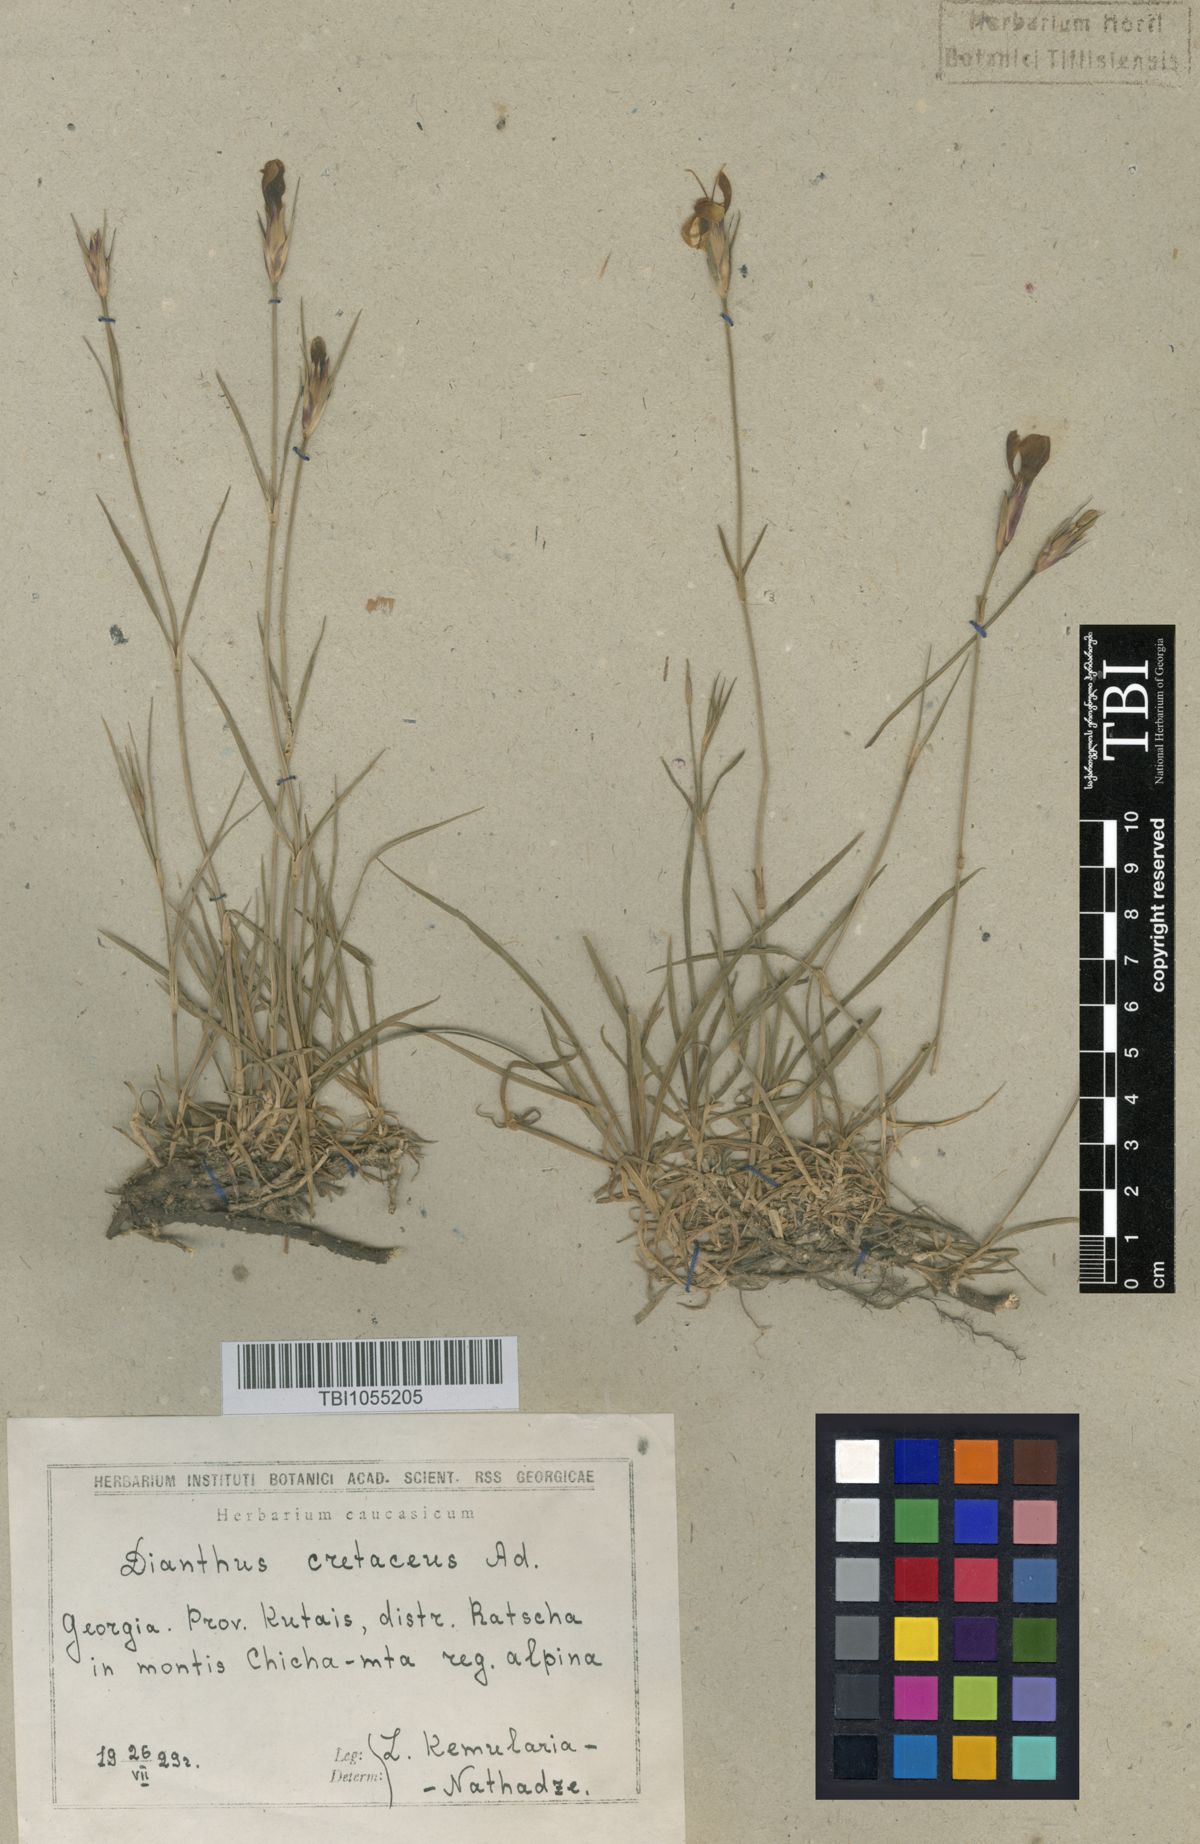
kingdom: Plantae
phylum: Tracheophyta
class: Magnoliopsida
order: Caryophyllales
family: Caryophyllaceae
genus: Dianthus
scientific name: Dianthus cretaceus
